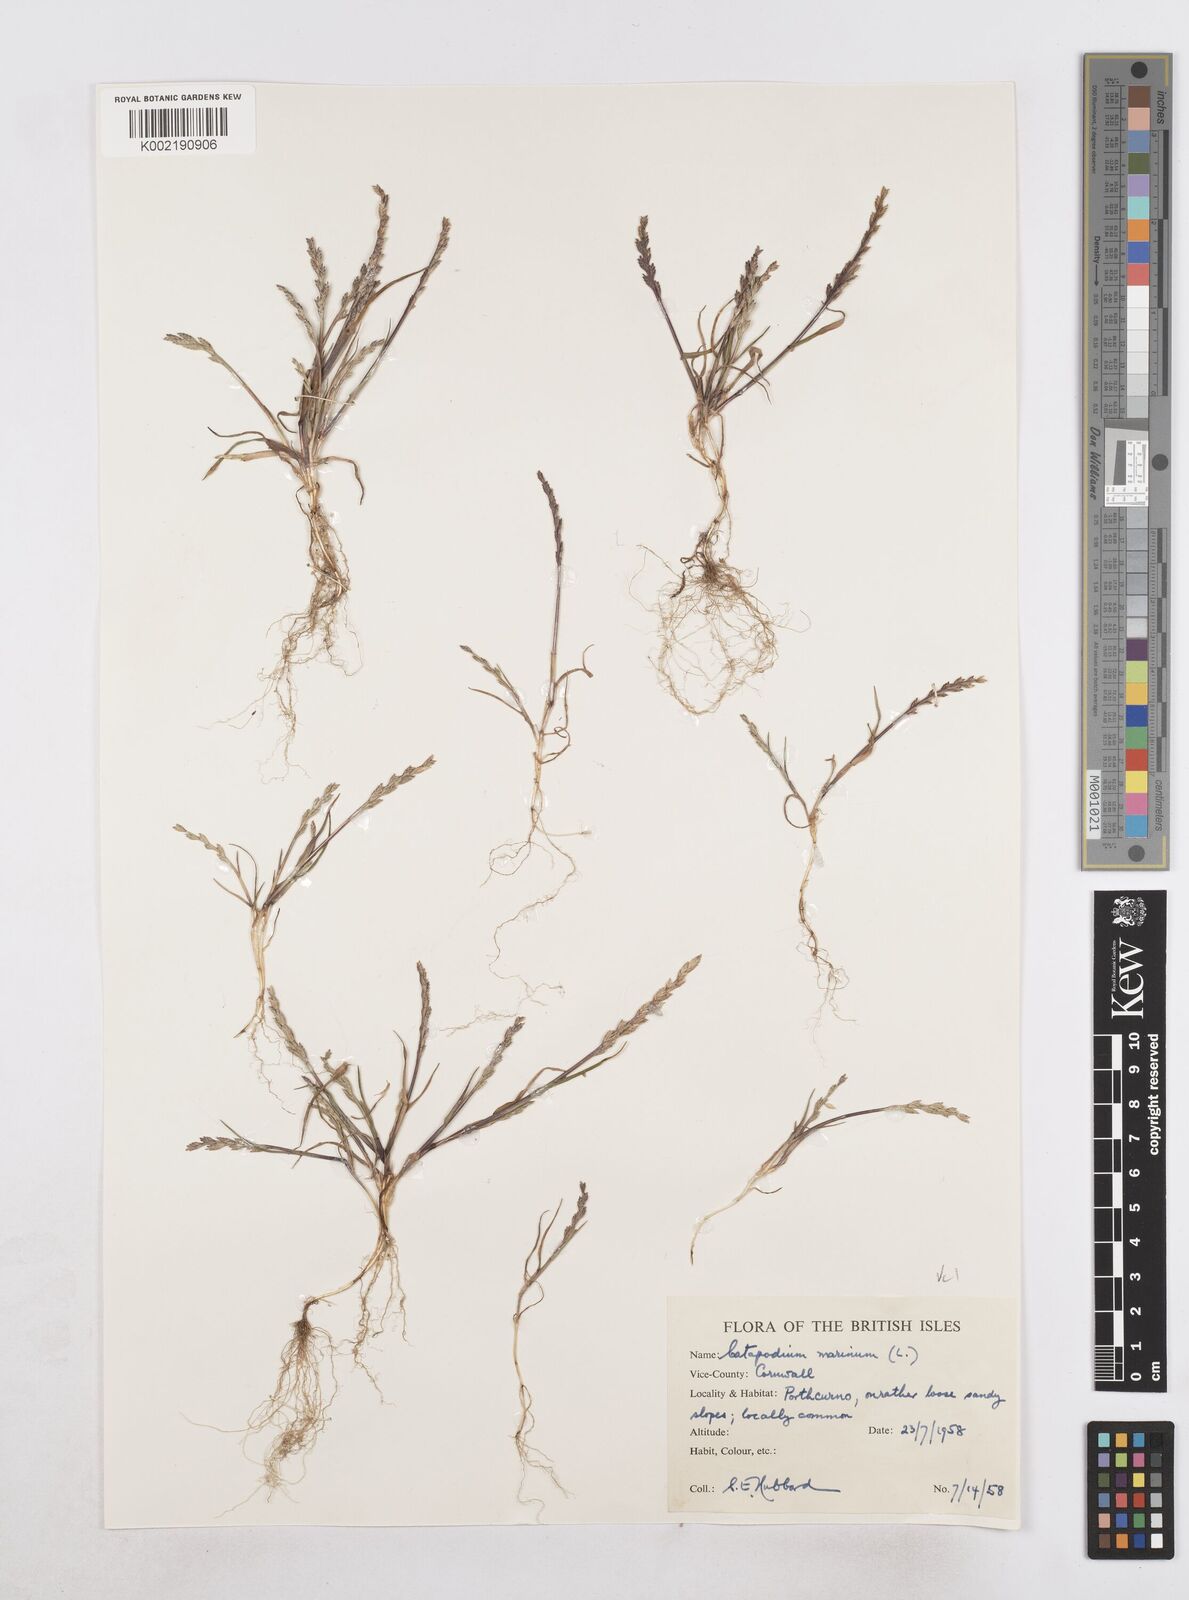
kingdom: Plantae
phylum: Tracheophyta
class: Liliopsida
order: Poales
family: Poaceae
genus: Catapodium
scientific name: Catapodium marinum
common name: Sea fern-grass
